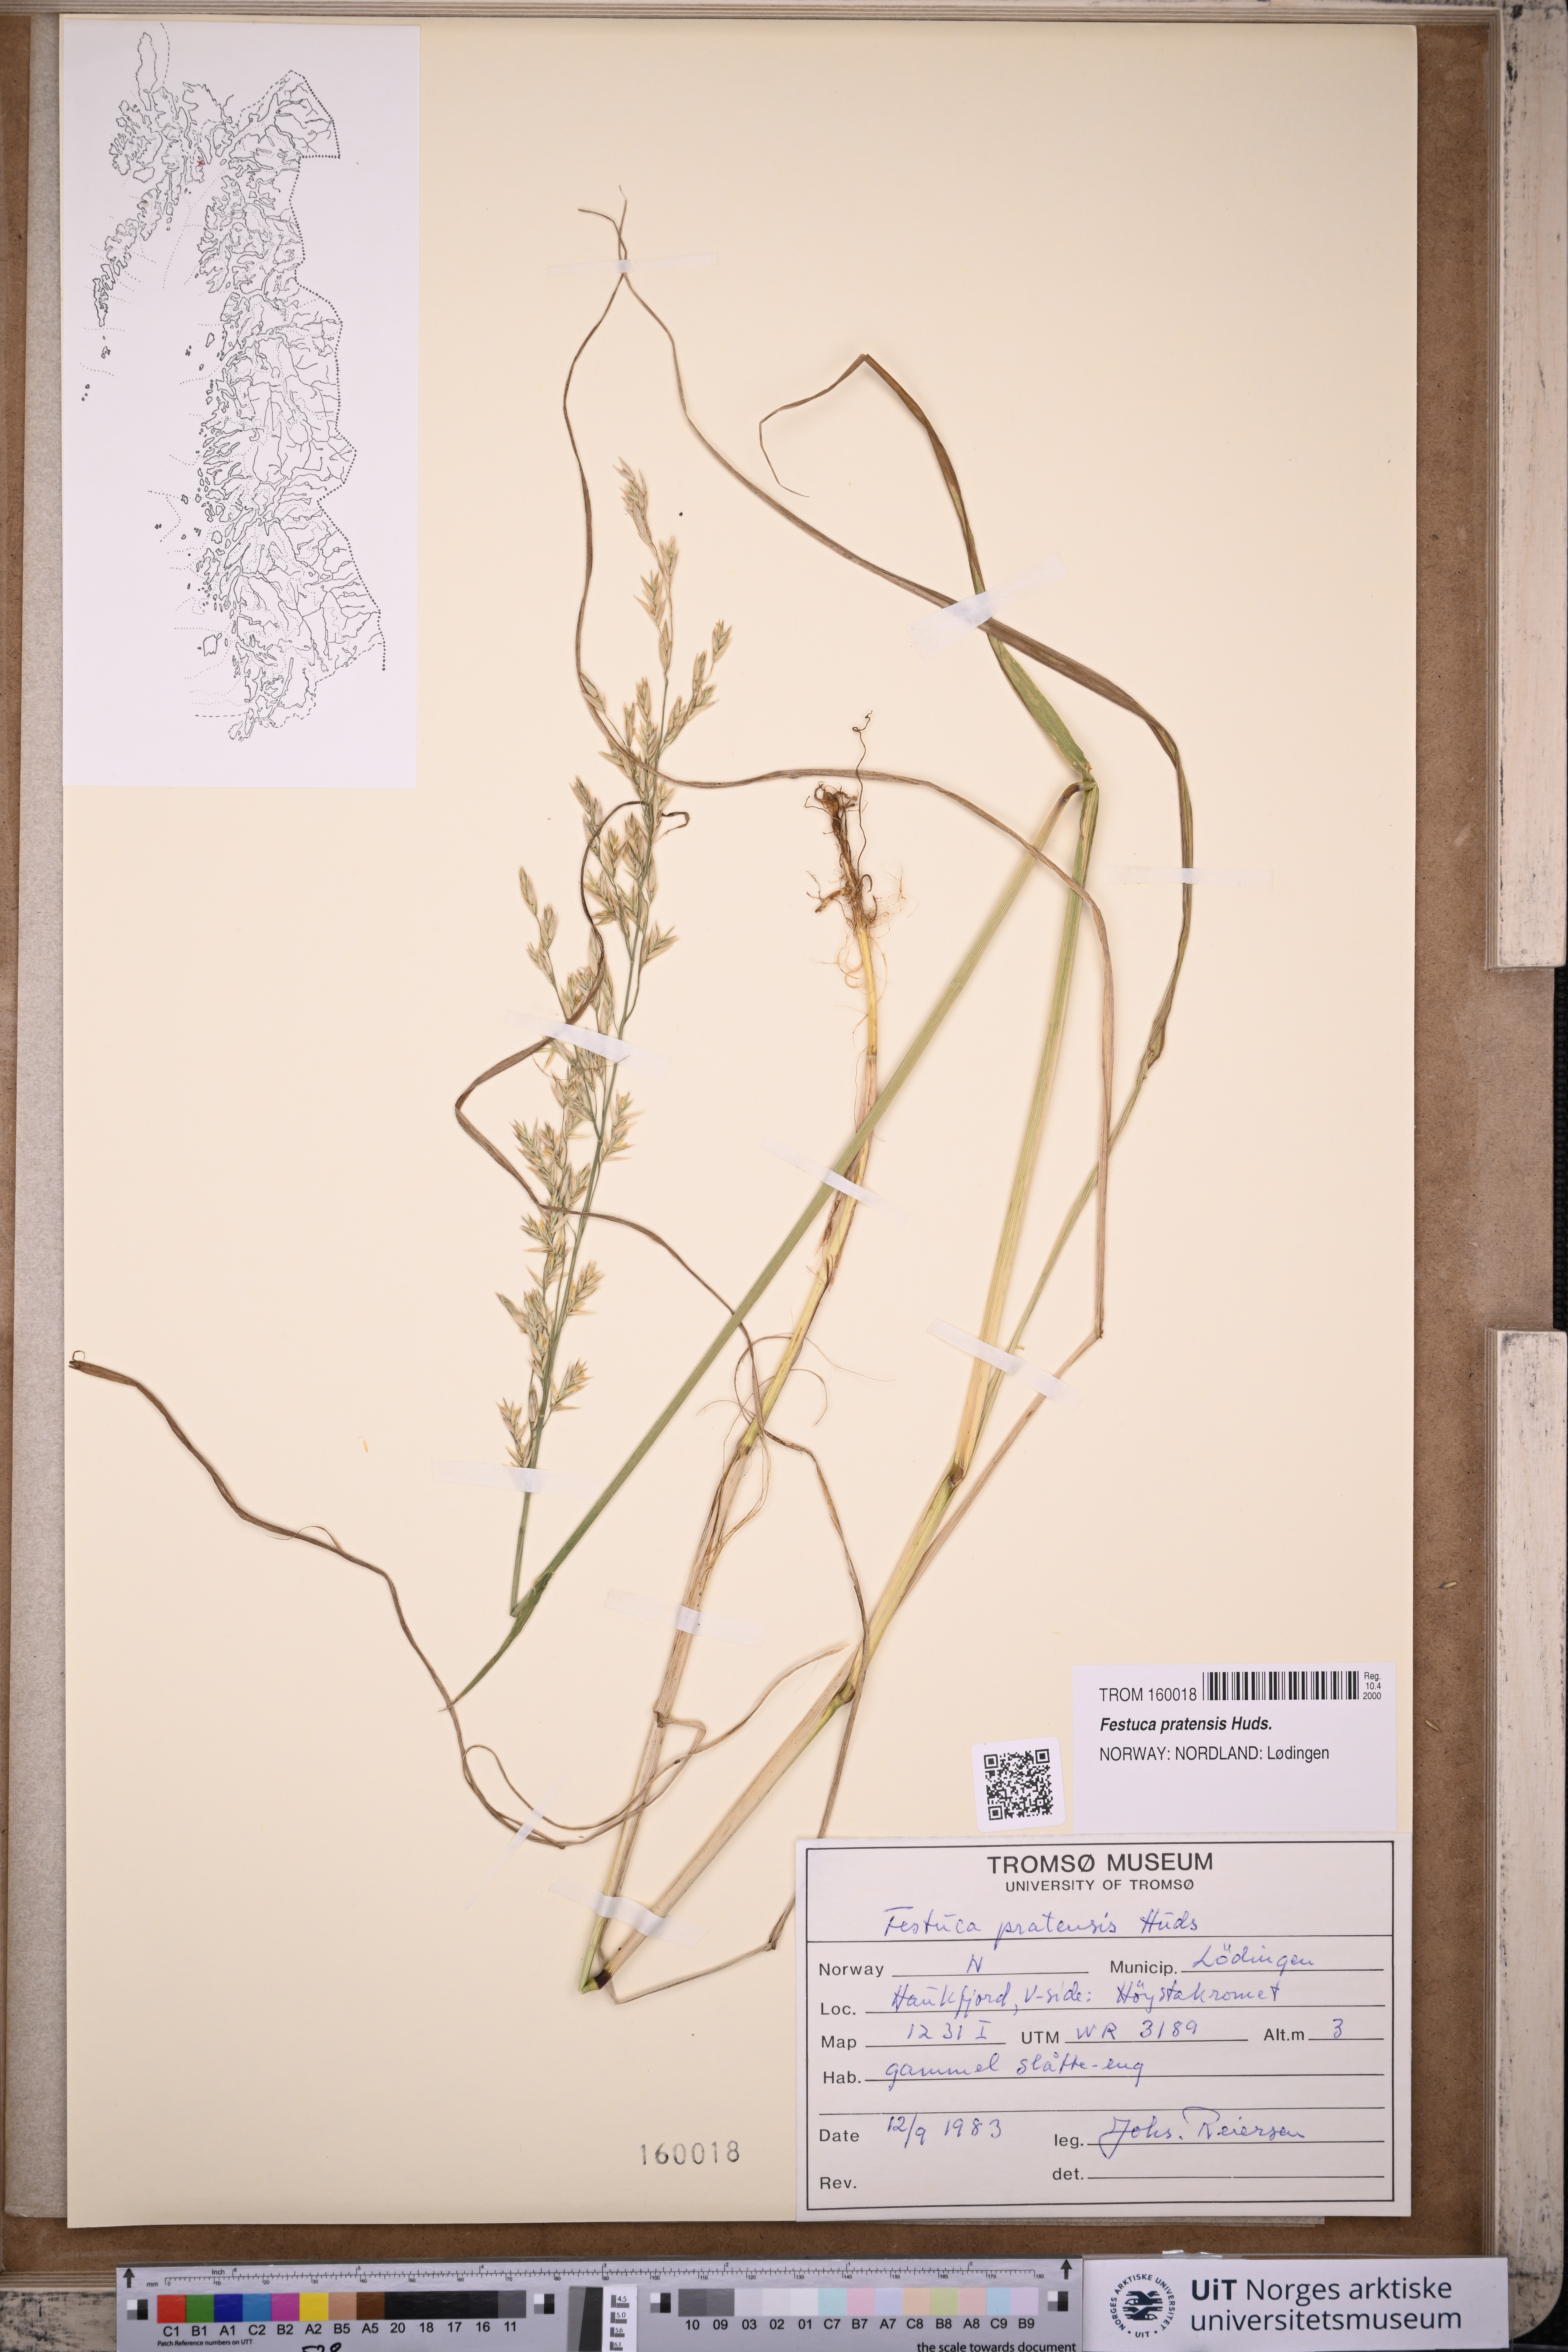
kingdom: Plantae
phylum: Tracheophyta
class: Liliopsida
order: Poales
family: Poaceae
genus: Lolium
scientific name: Lolium pratense
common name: Dover grass
